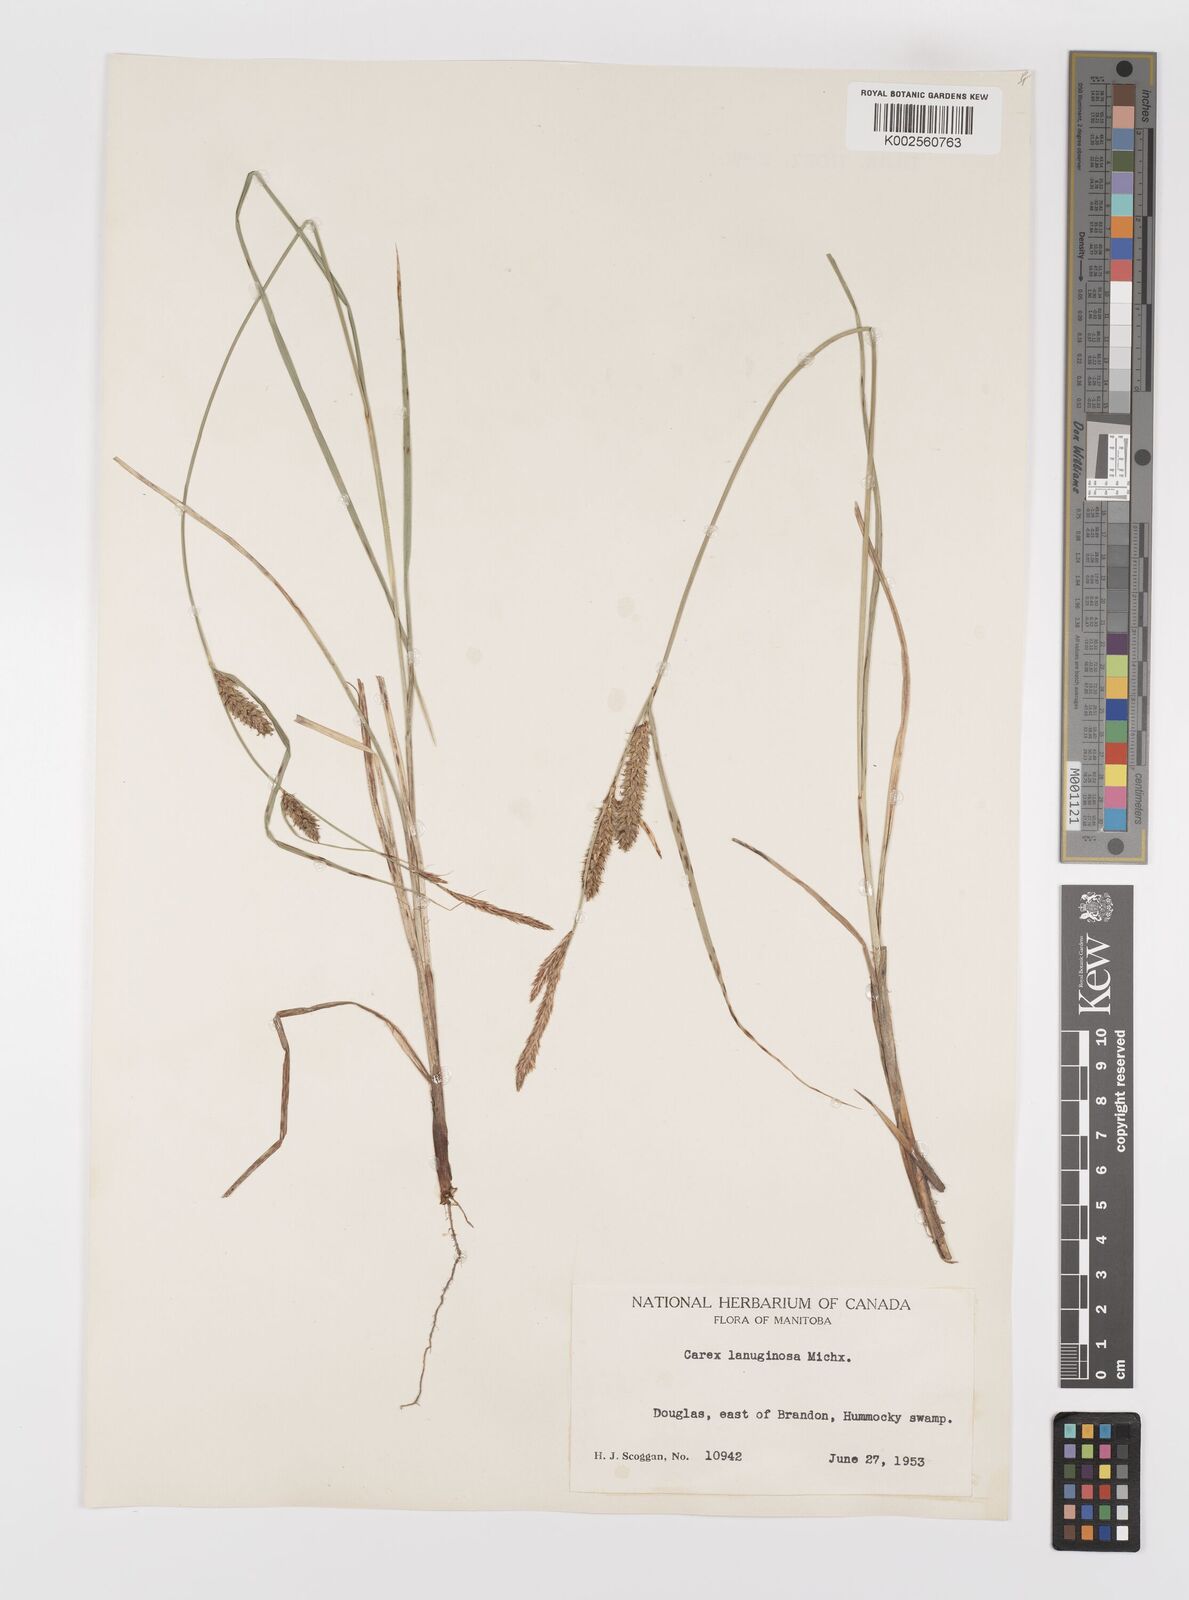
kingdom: Plantae
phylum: Tracheophyta
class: Liliopsida
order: Poales
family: Cyperaceae
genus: Carex
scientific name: Carex lasiocarpa
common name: Slender sedge
